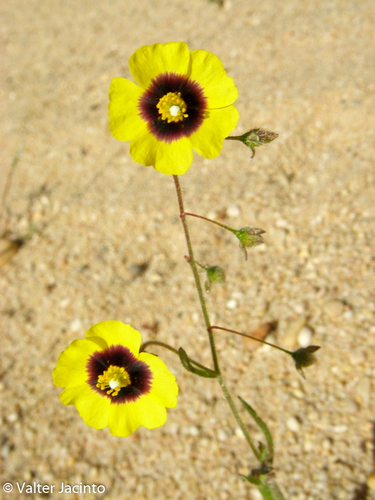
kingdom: Plantae
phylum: Tracheophyta
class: Magnoliopsida
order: Malvales
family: Cistaceae
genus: Tuberaria
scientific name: Tuberaria guttata
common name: Spotted rock-rose
